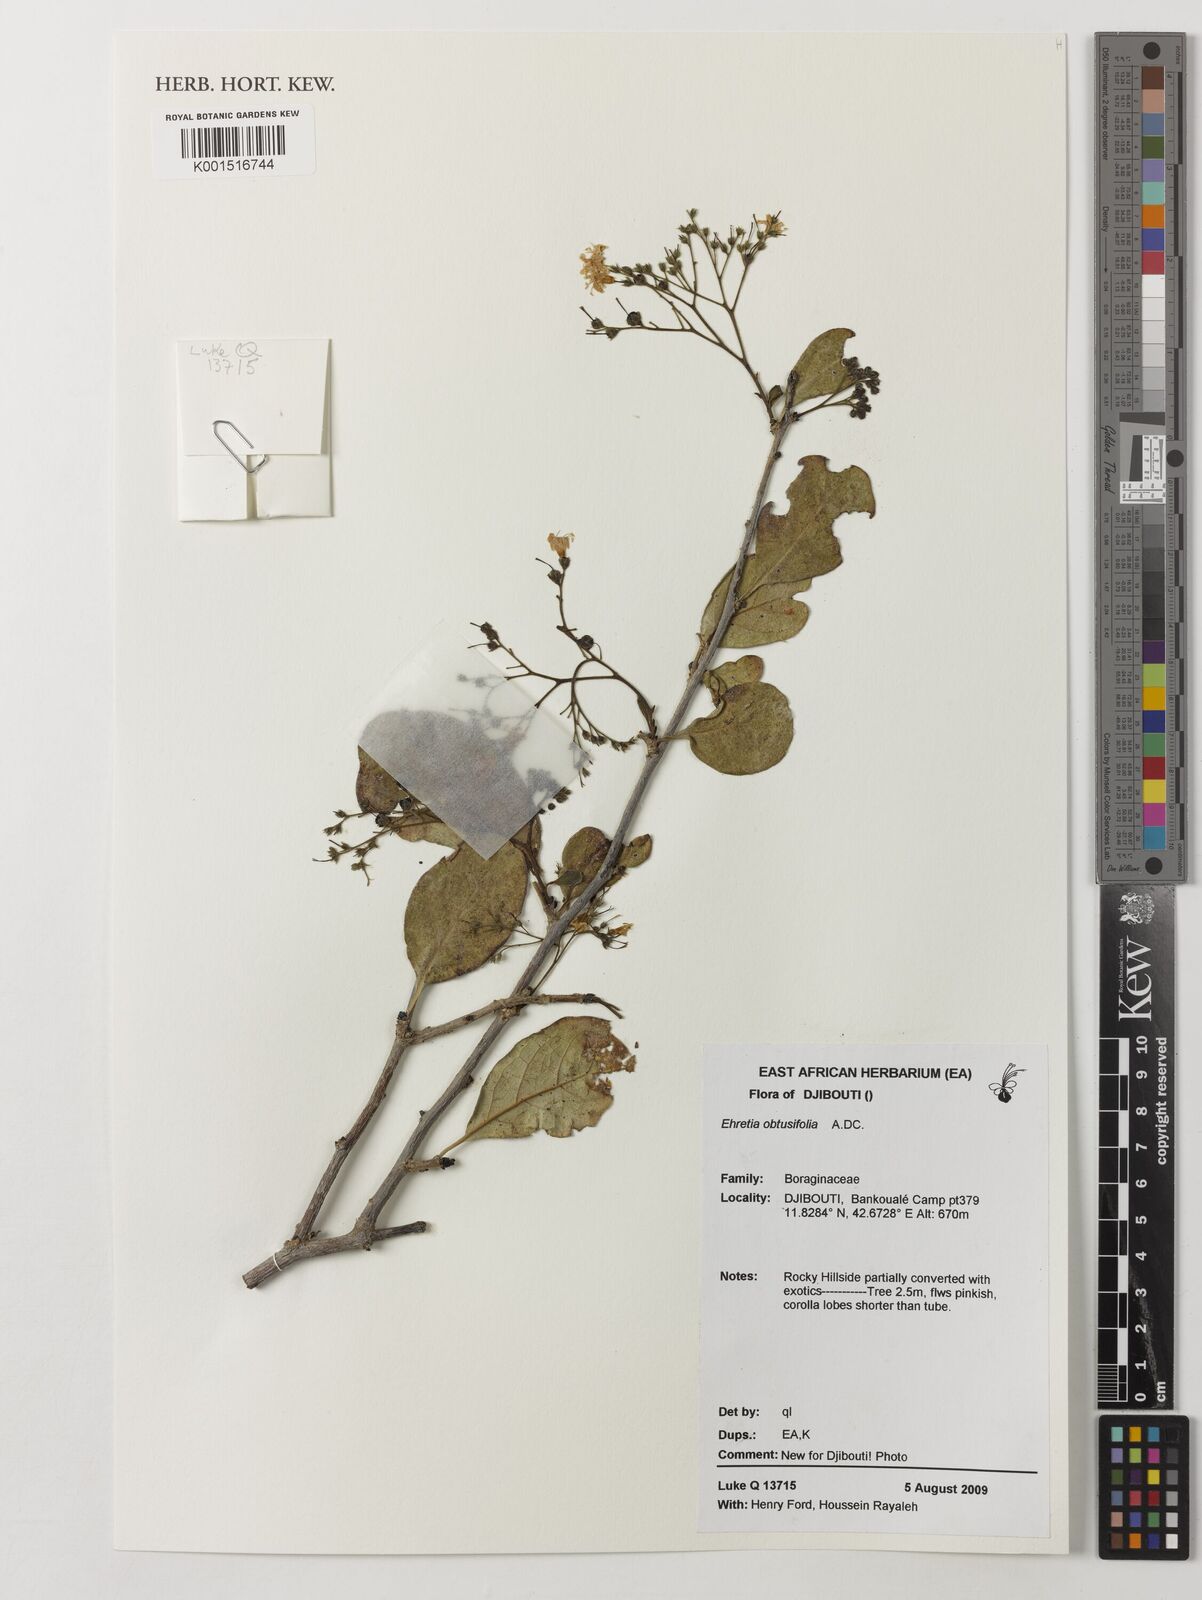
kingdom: Plantae
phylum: Tracheophyta
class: Magnoliopsida
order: Boraginales
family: Ehretiaceae
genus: Ehretia
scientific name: Ehretia obtusifolia
